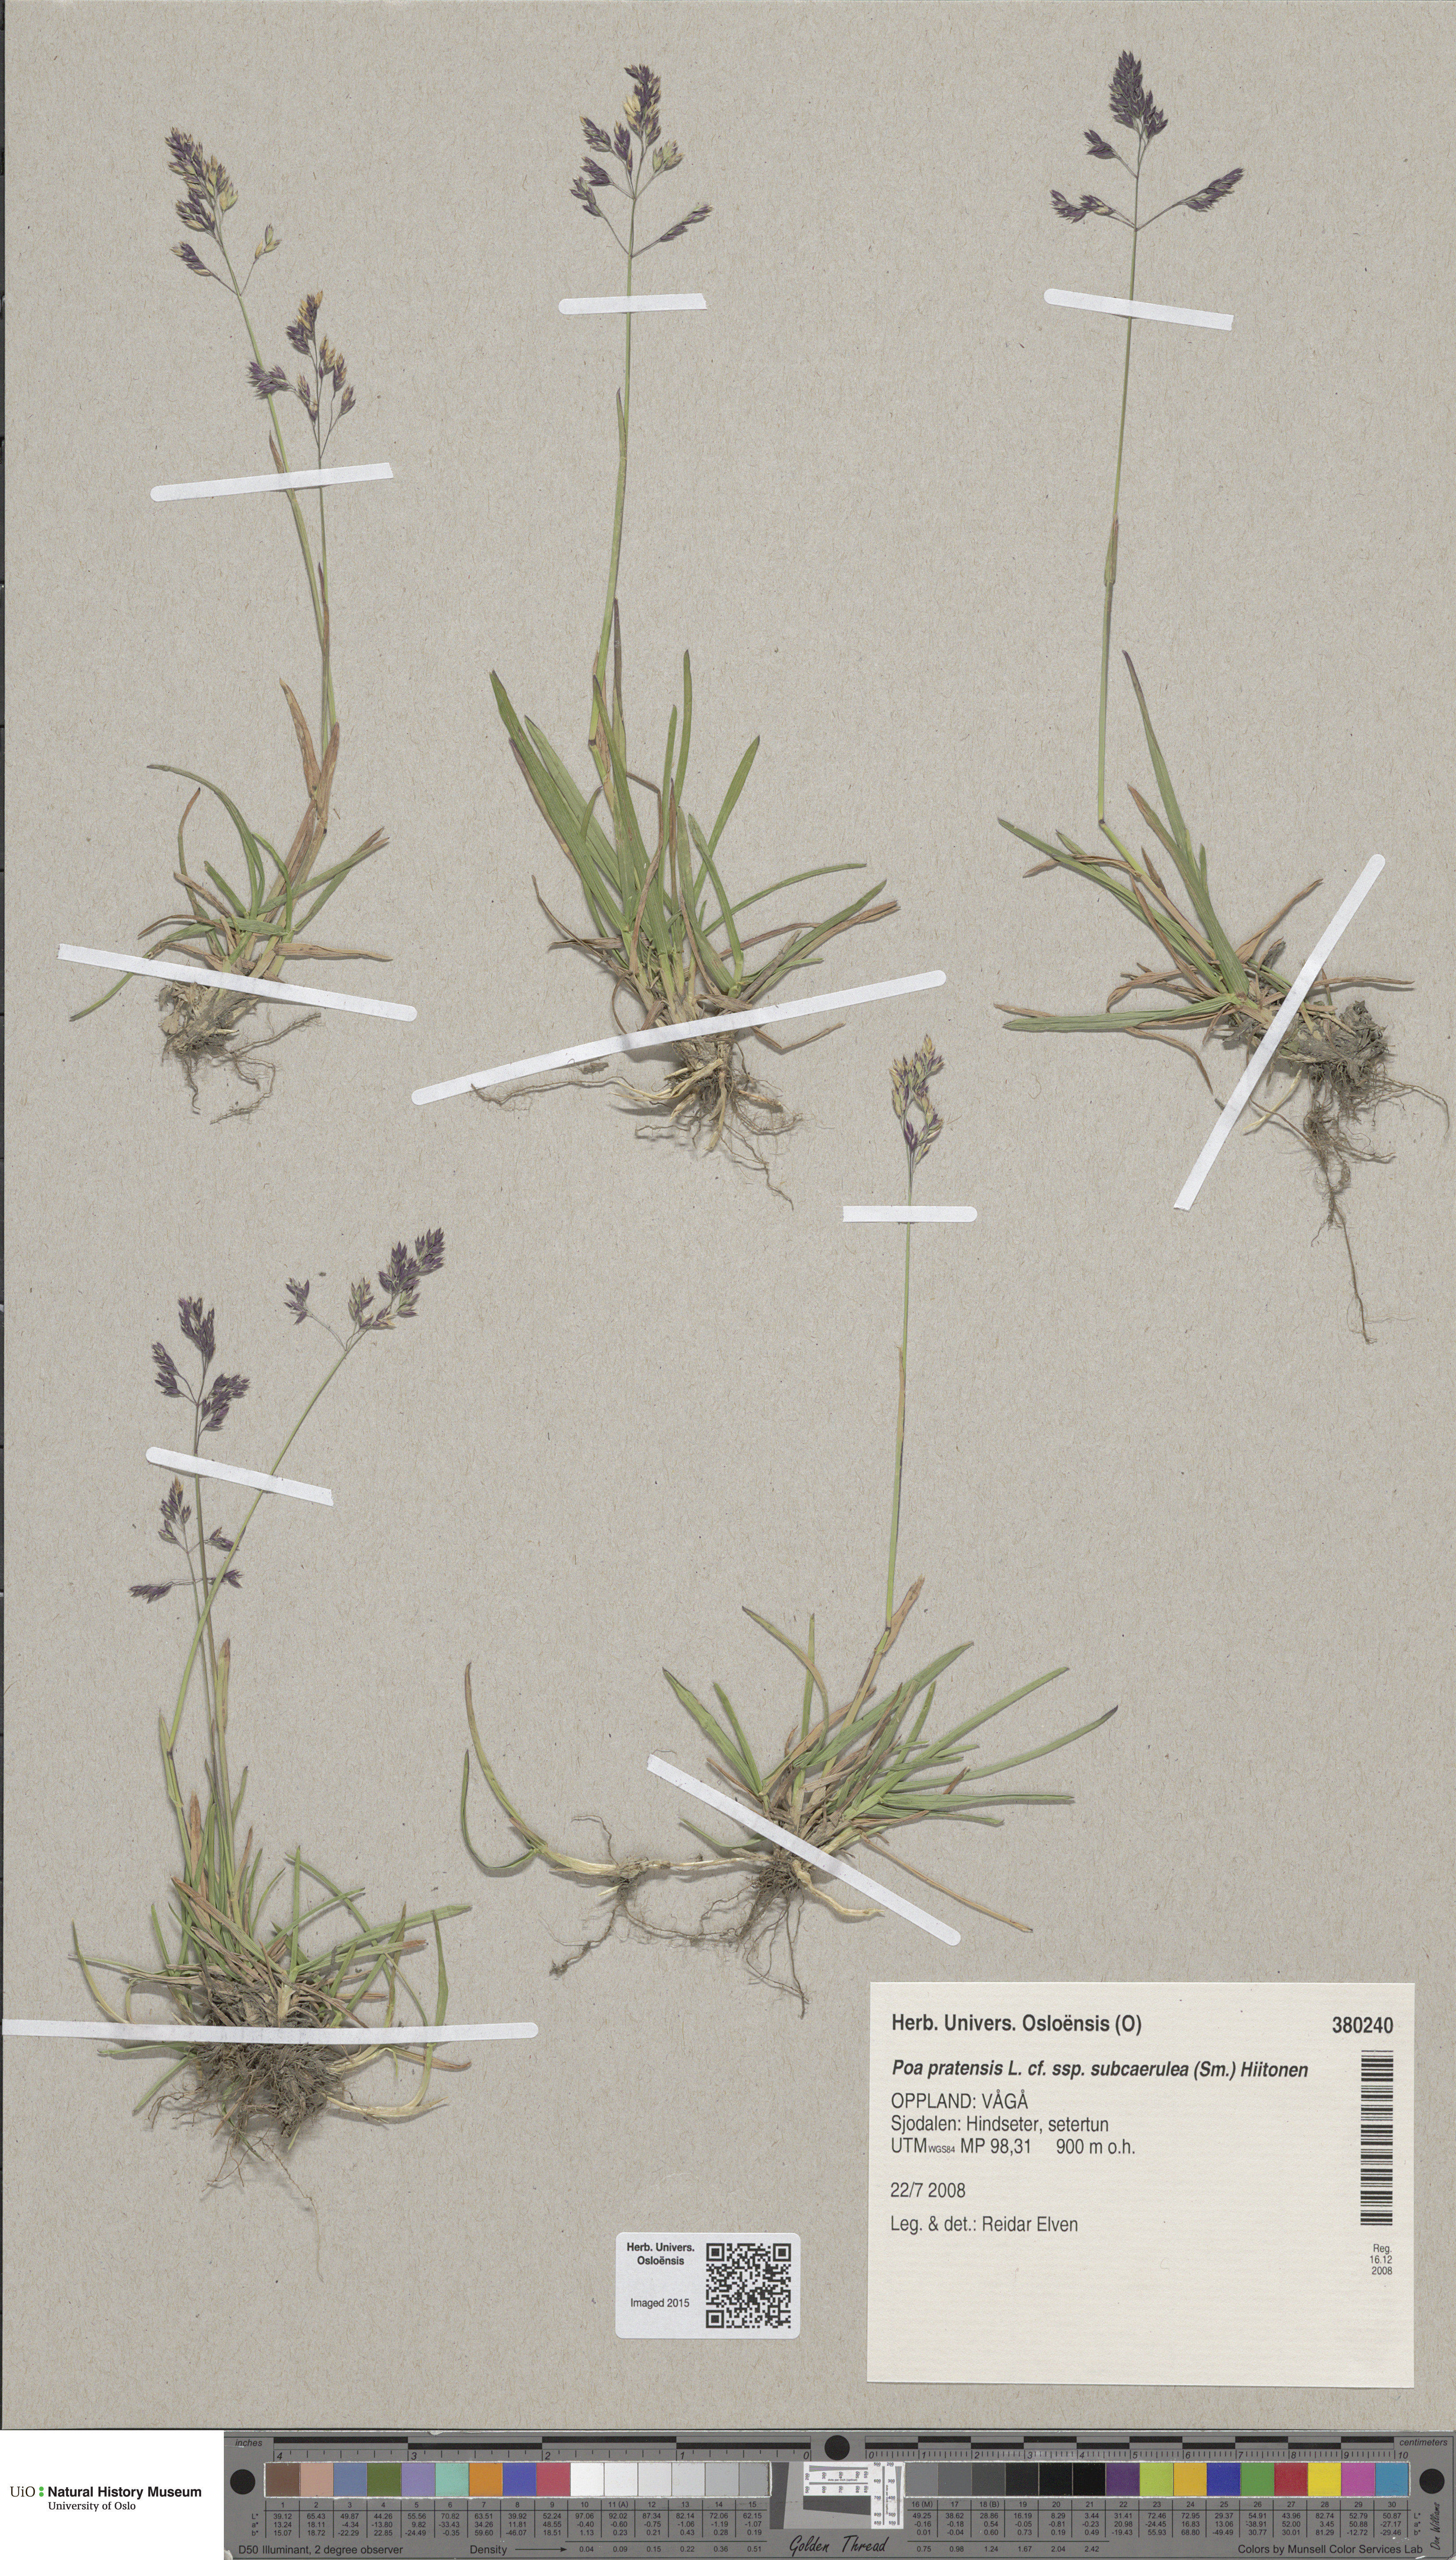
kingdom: Plantae
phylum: Tracheophyta
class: Liliopsida
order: Poales
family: Poaceae
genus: Poa
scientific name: Poa humilis
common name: Spreading meadow-grass
